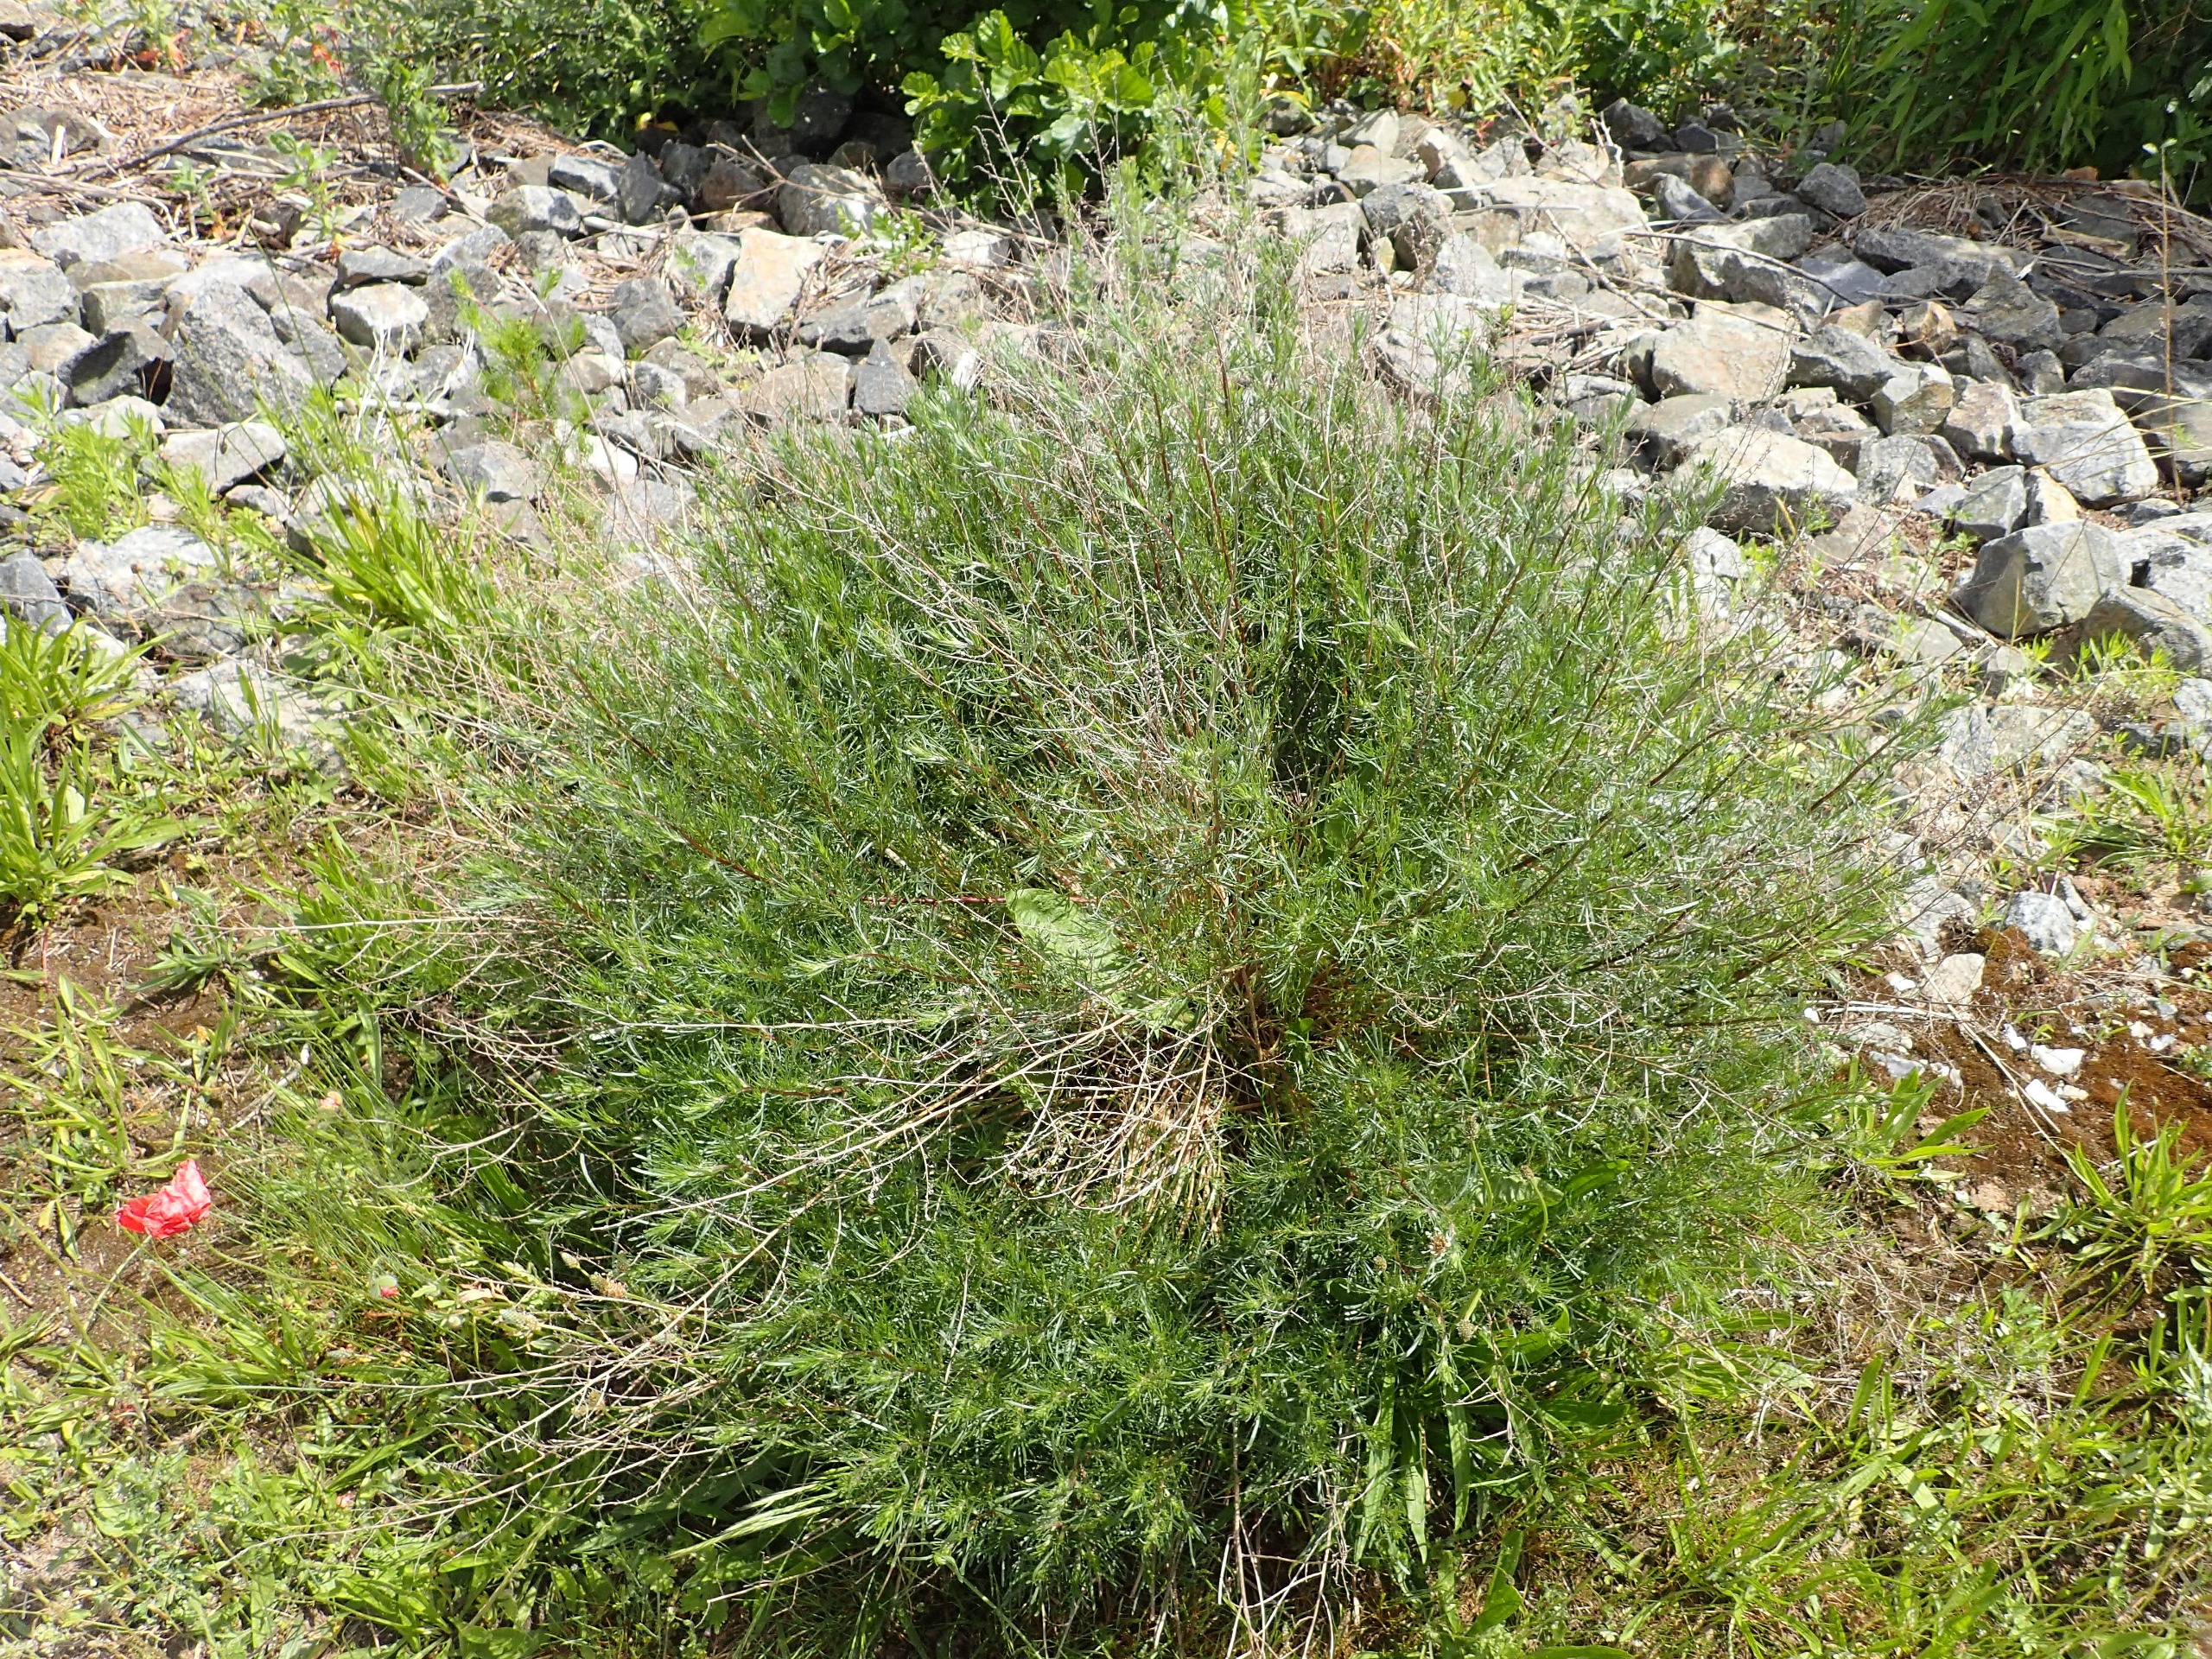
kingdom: Plantae
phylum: Tracheophyta
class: Magnoliopsida
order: Asterales
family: Asteraceae
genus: Artemisia
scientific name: Artemisia campestris
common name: Mark-bynke
